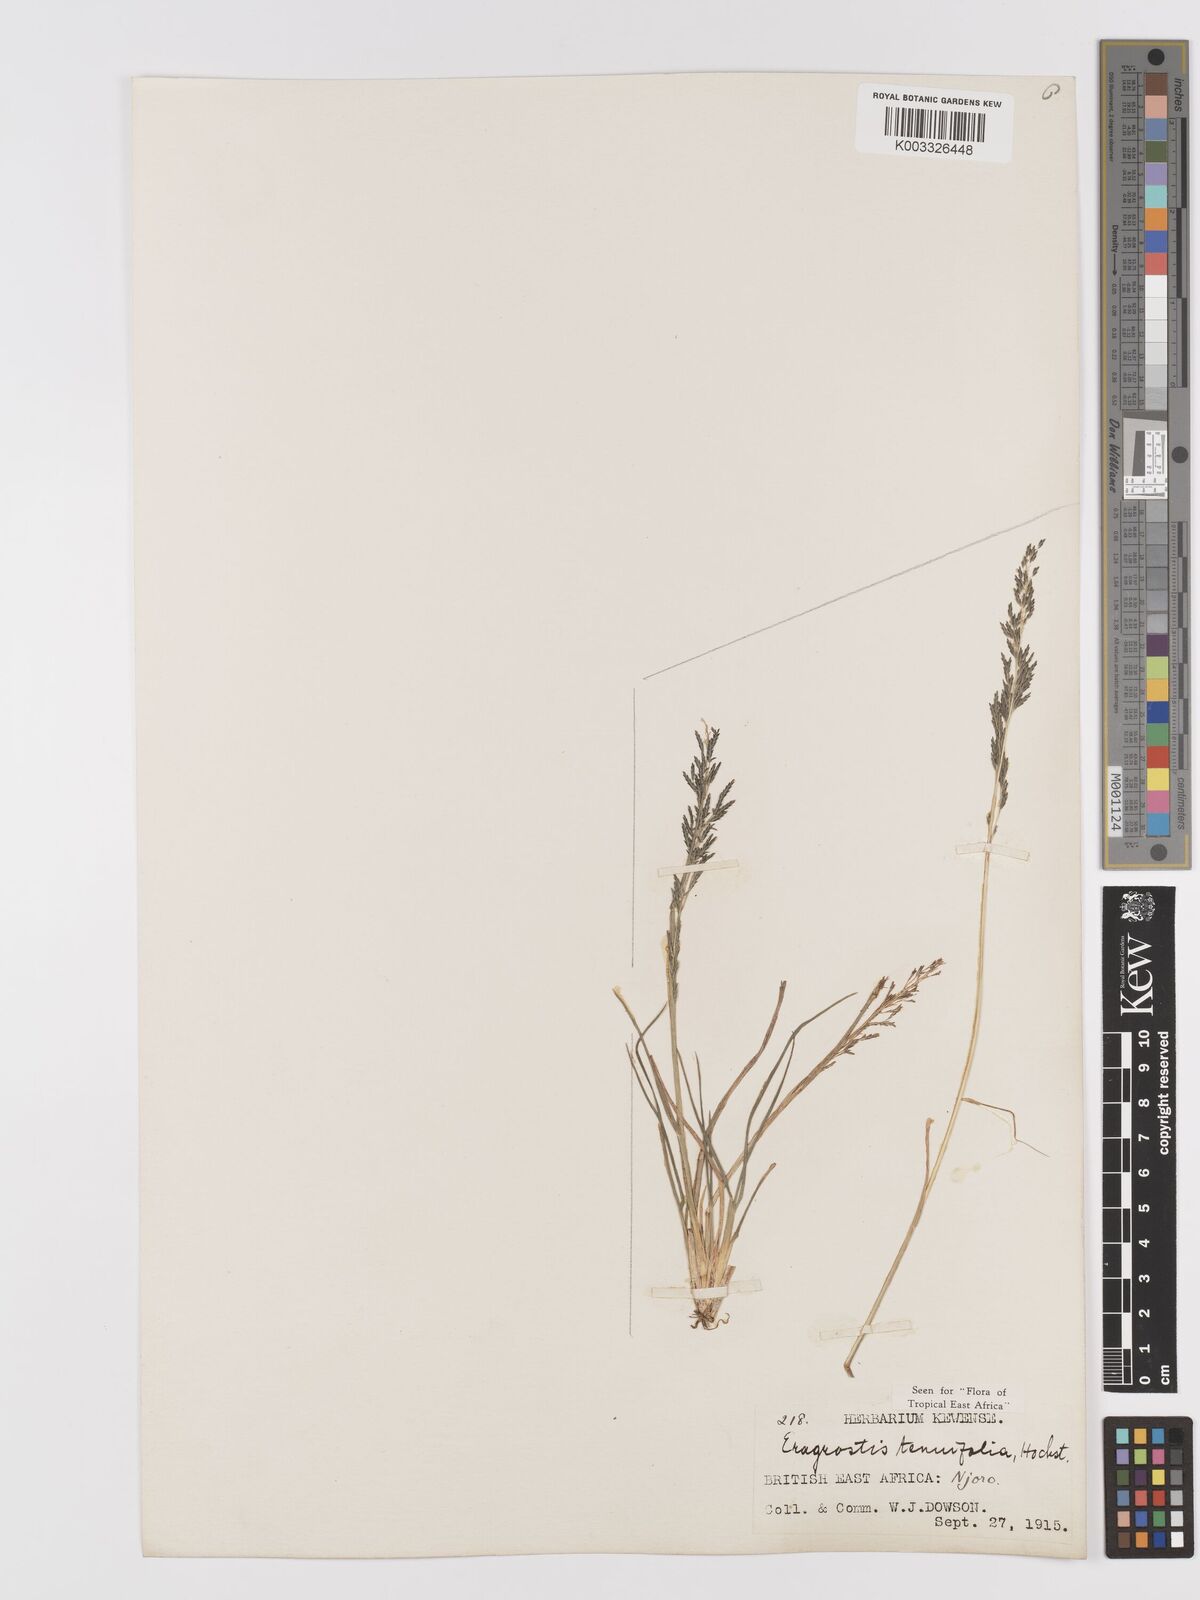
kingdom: Plantae
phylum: Tracheophyta
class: Liliopsida
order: Poales
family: Poaceae
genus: Eragrostis
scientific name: Eragrostis tenuifolia
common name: Elastic grass
